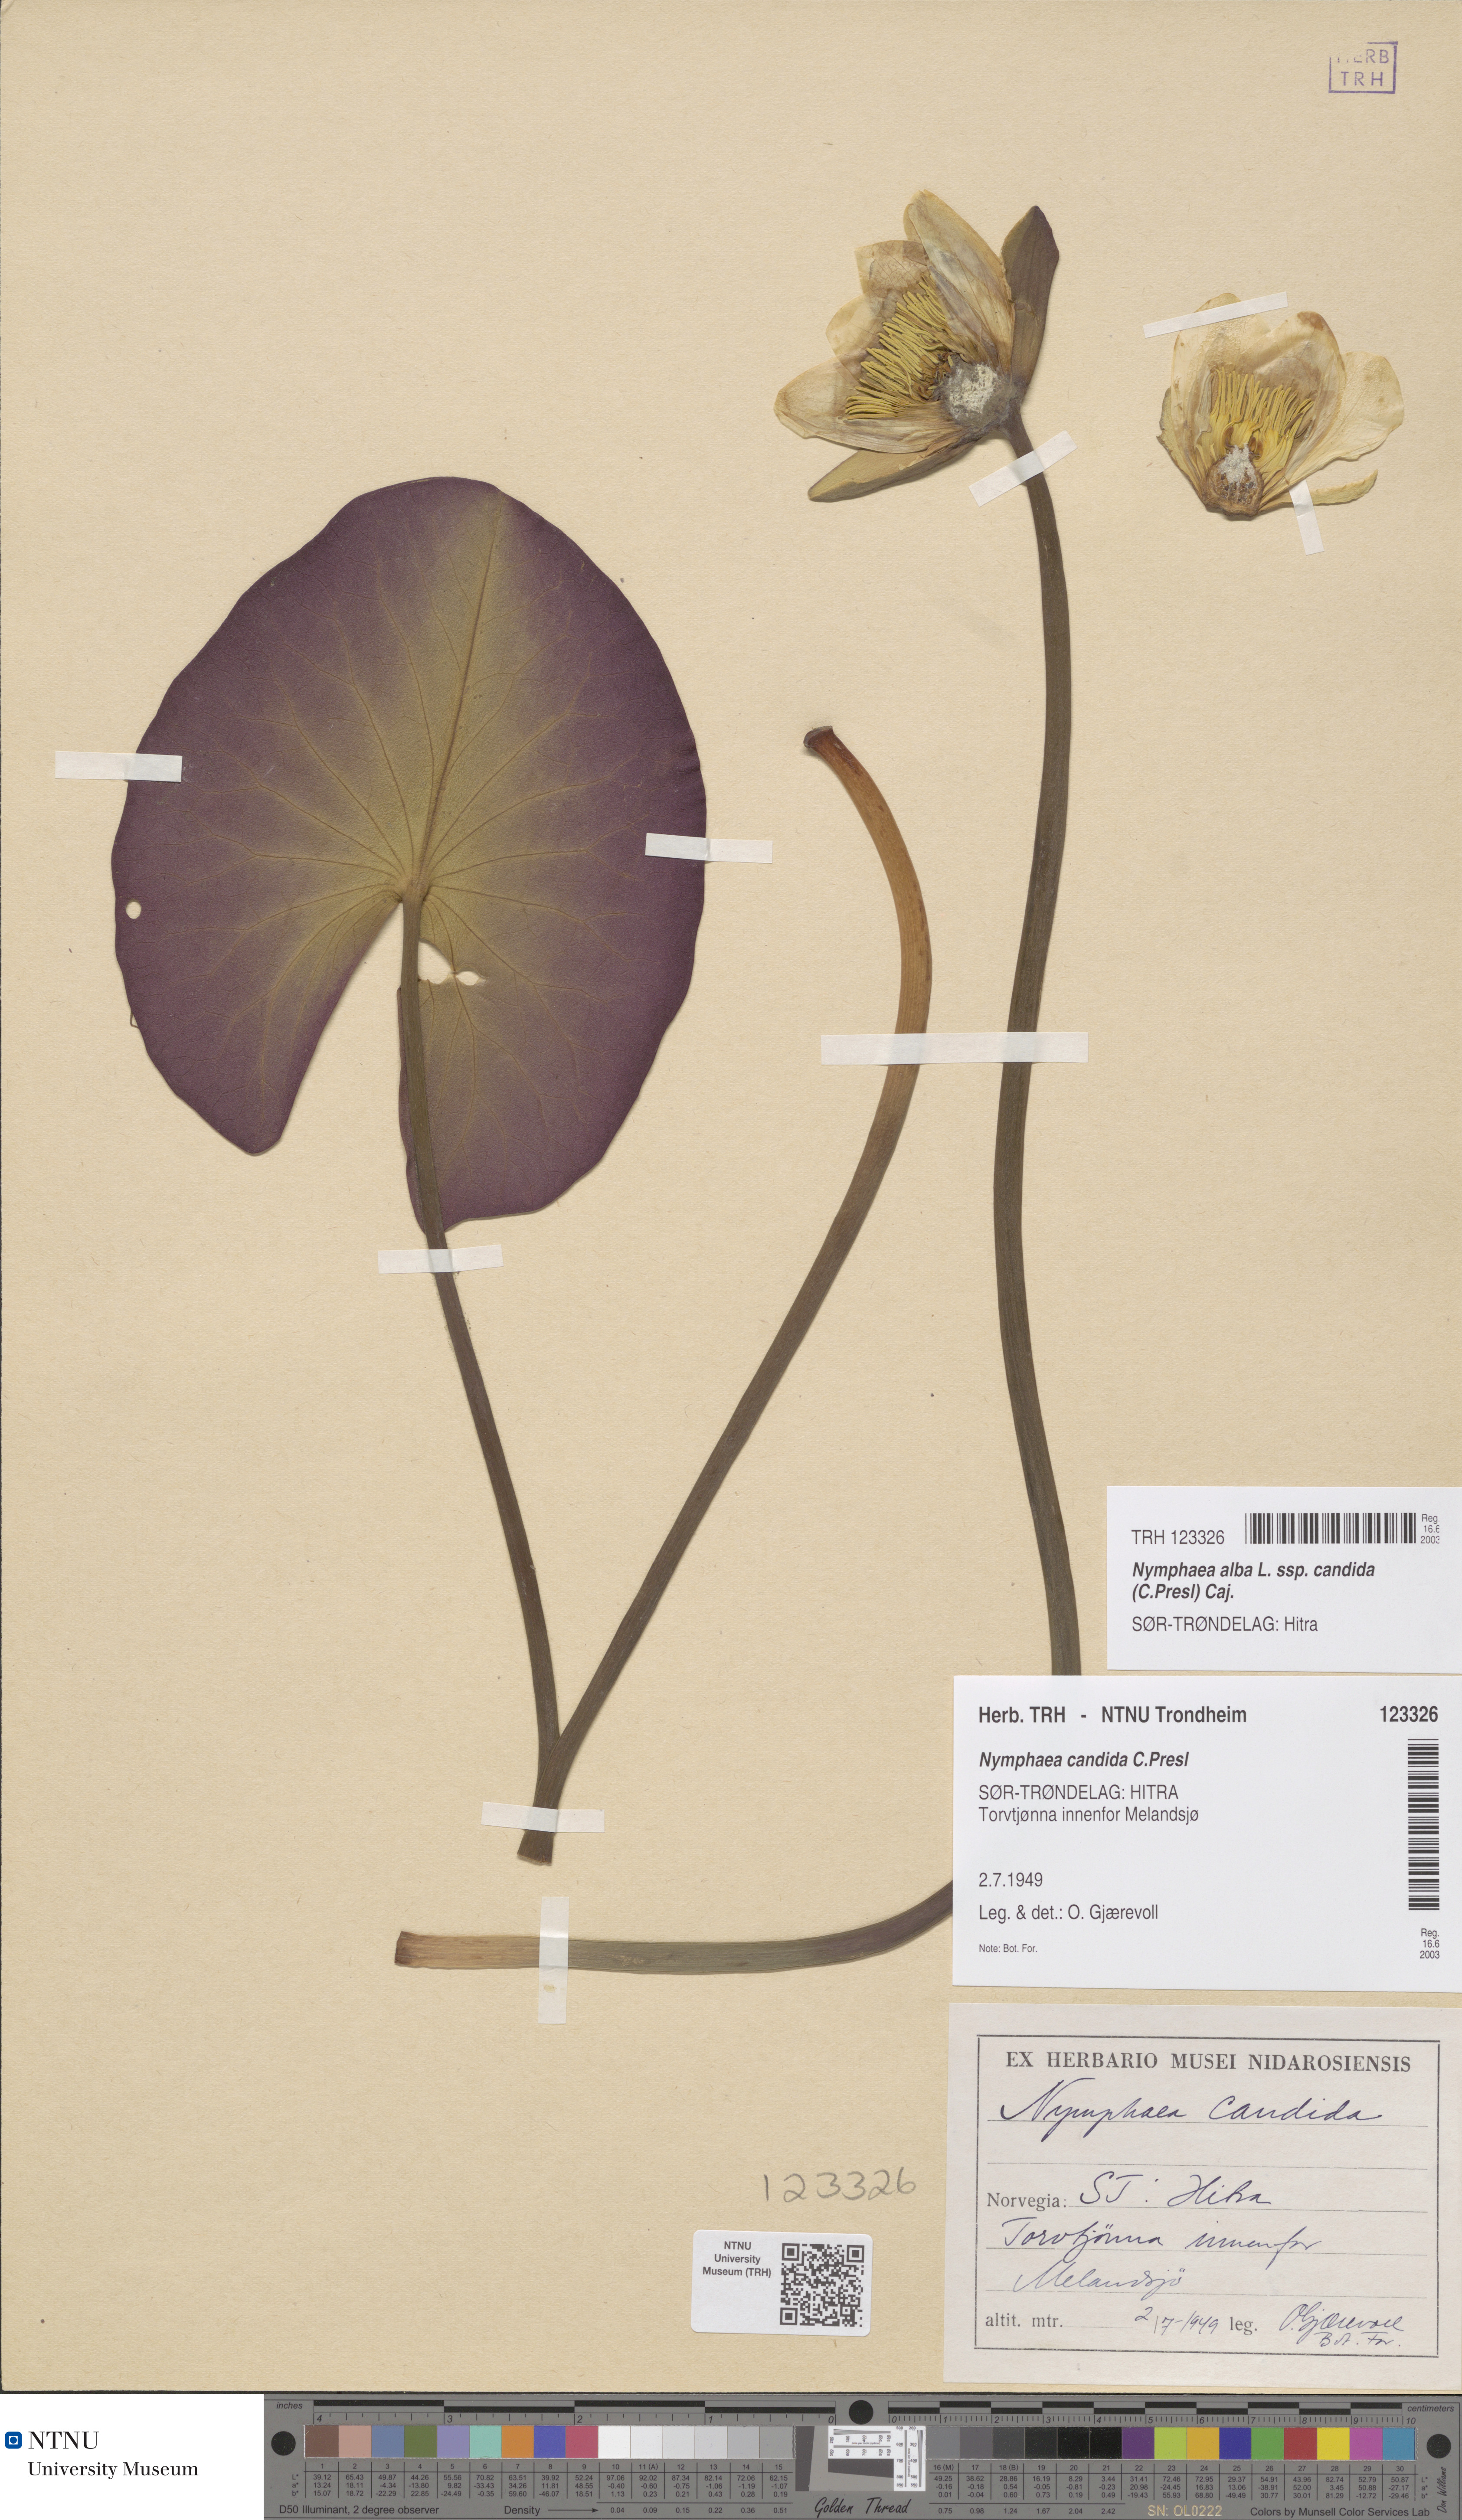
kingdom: Plantae
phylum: Tracheophyta
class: Magnoliopsida
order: Nymphaeales
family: Nymphaeaceae
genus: Nymphaea
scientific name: Nymphaea candida
